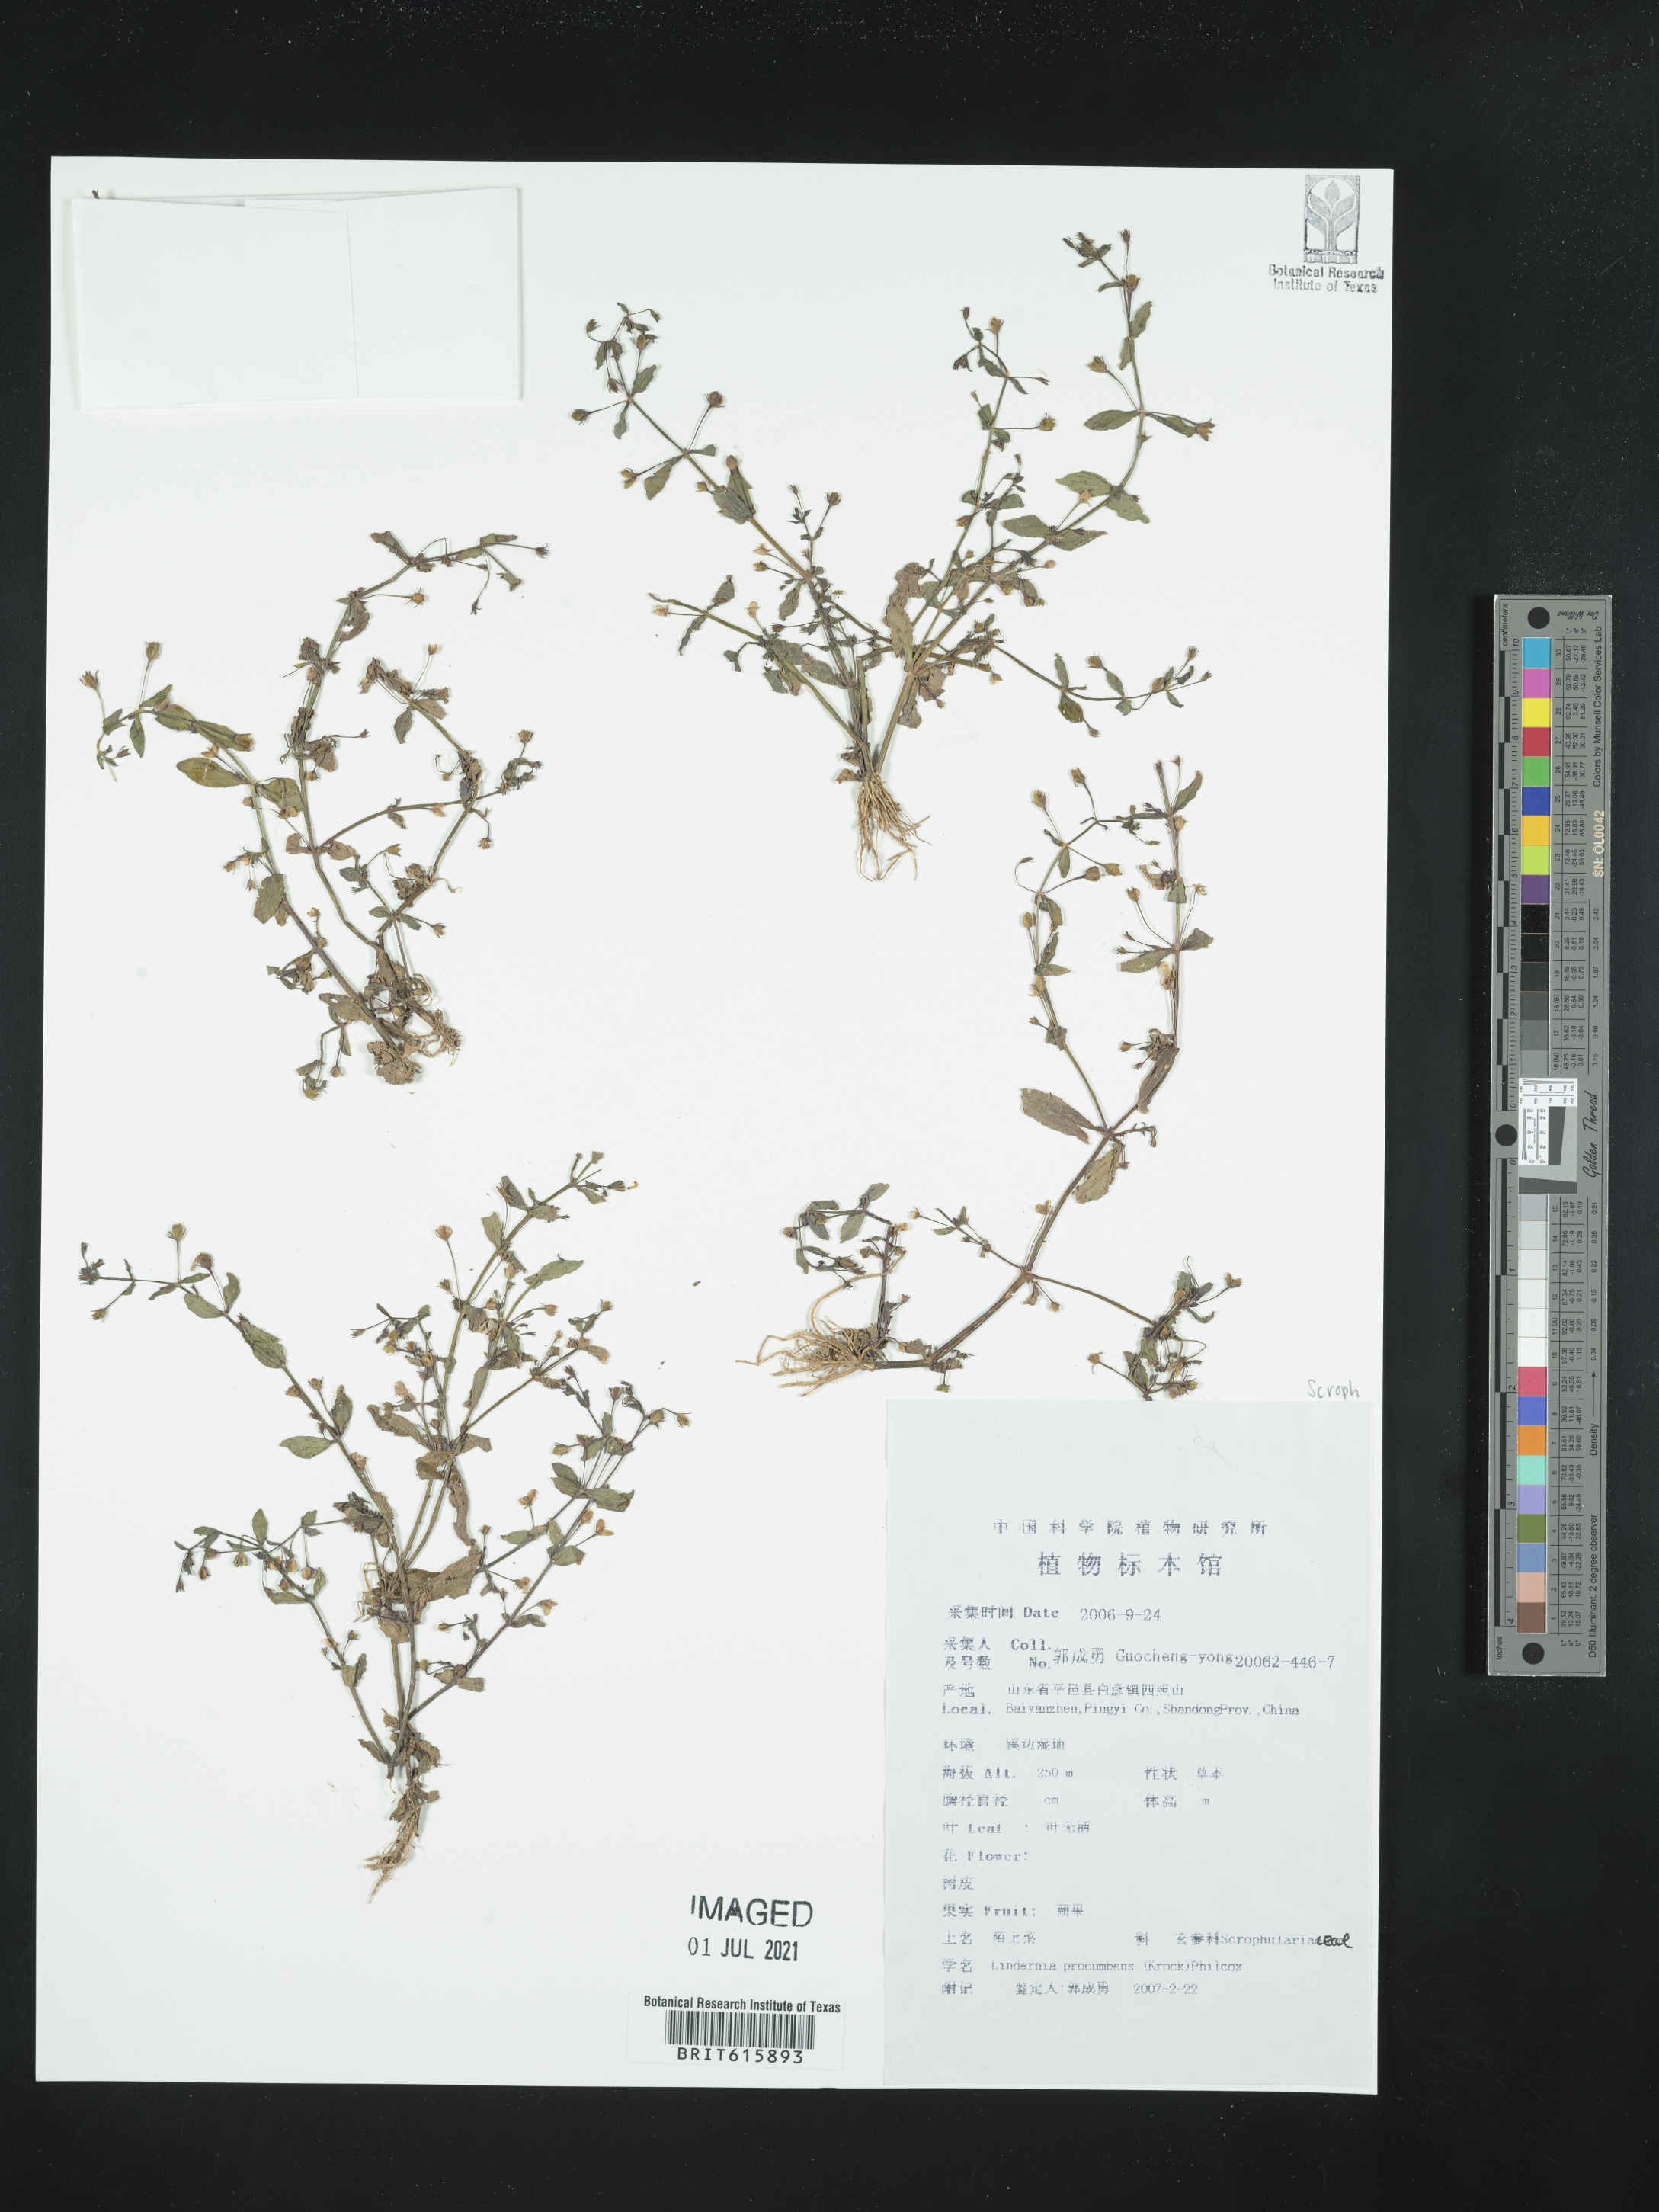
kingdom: Plantae
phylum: Tracheophyta
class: Magnoliopsida
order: Lamiales
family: Linderniaceae
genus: Lindernia
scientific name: Lindernia procumbens
